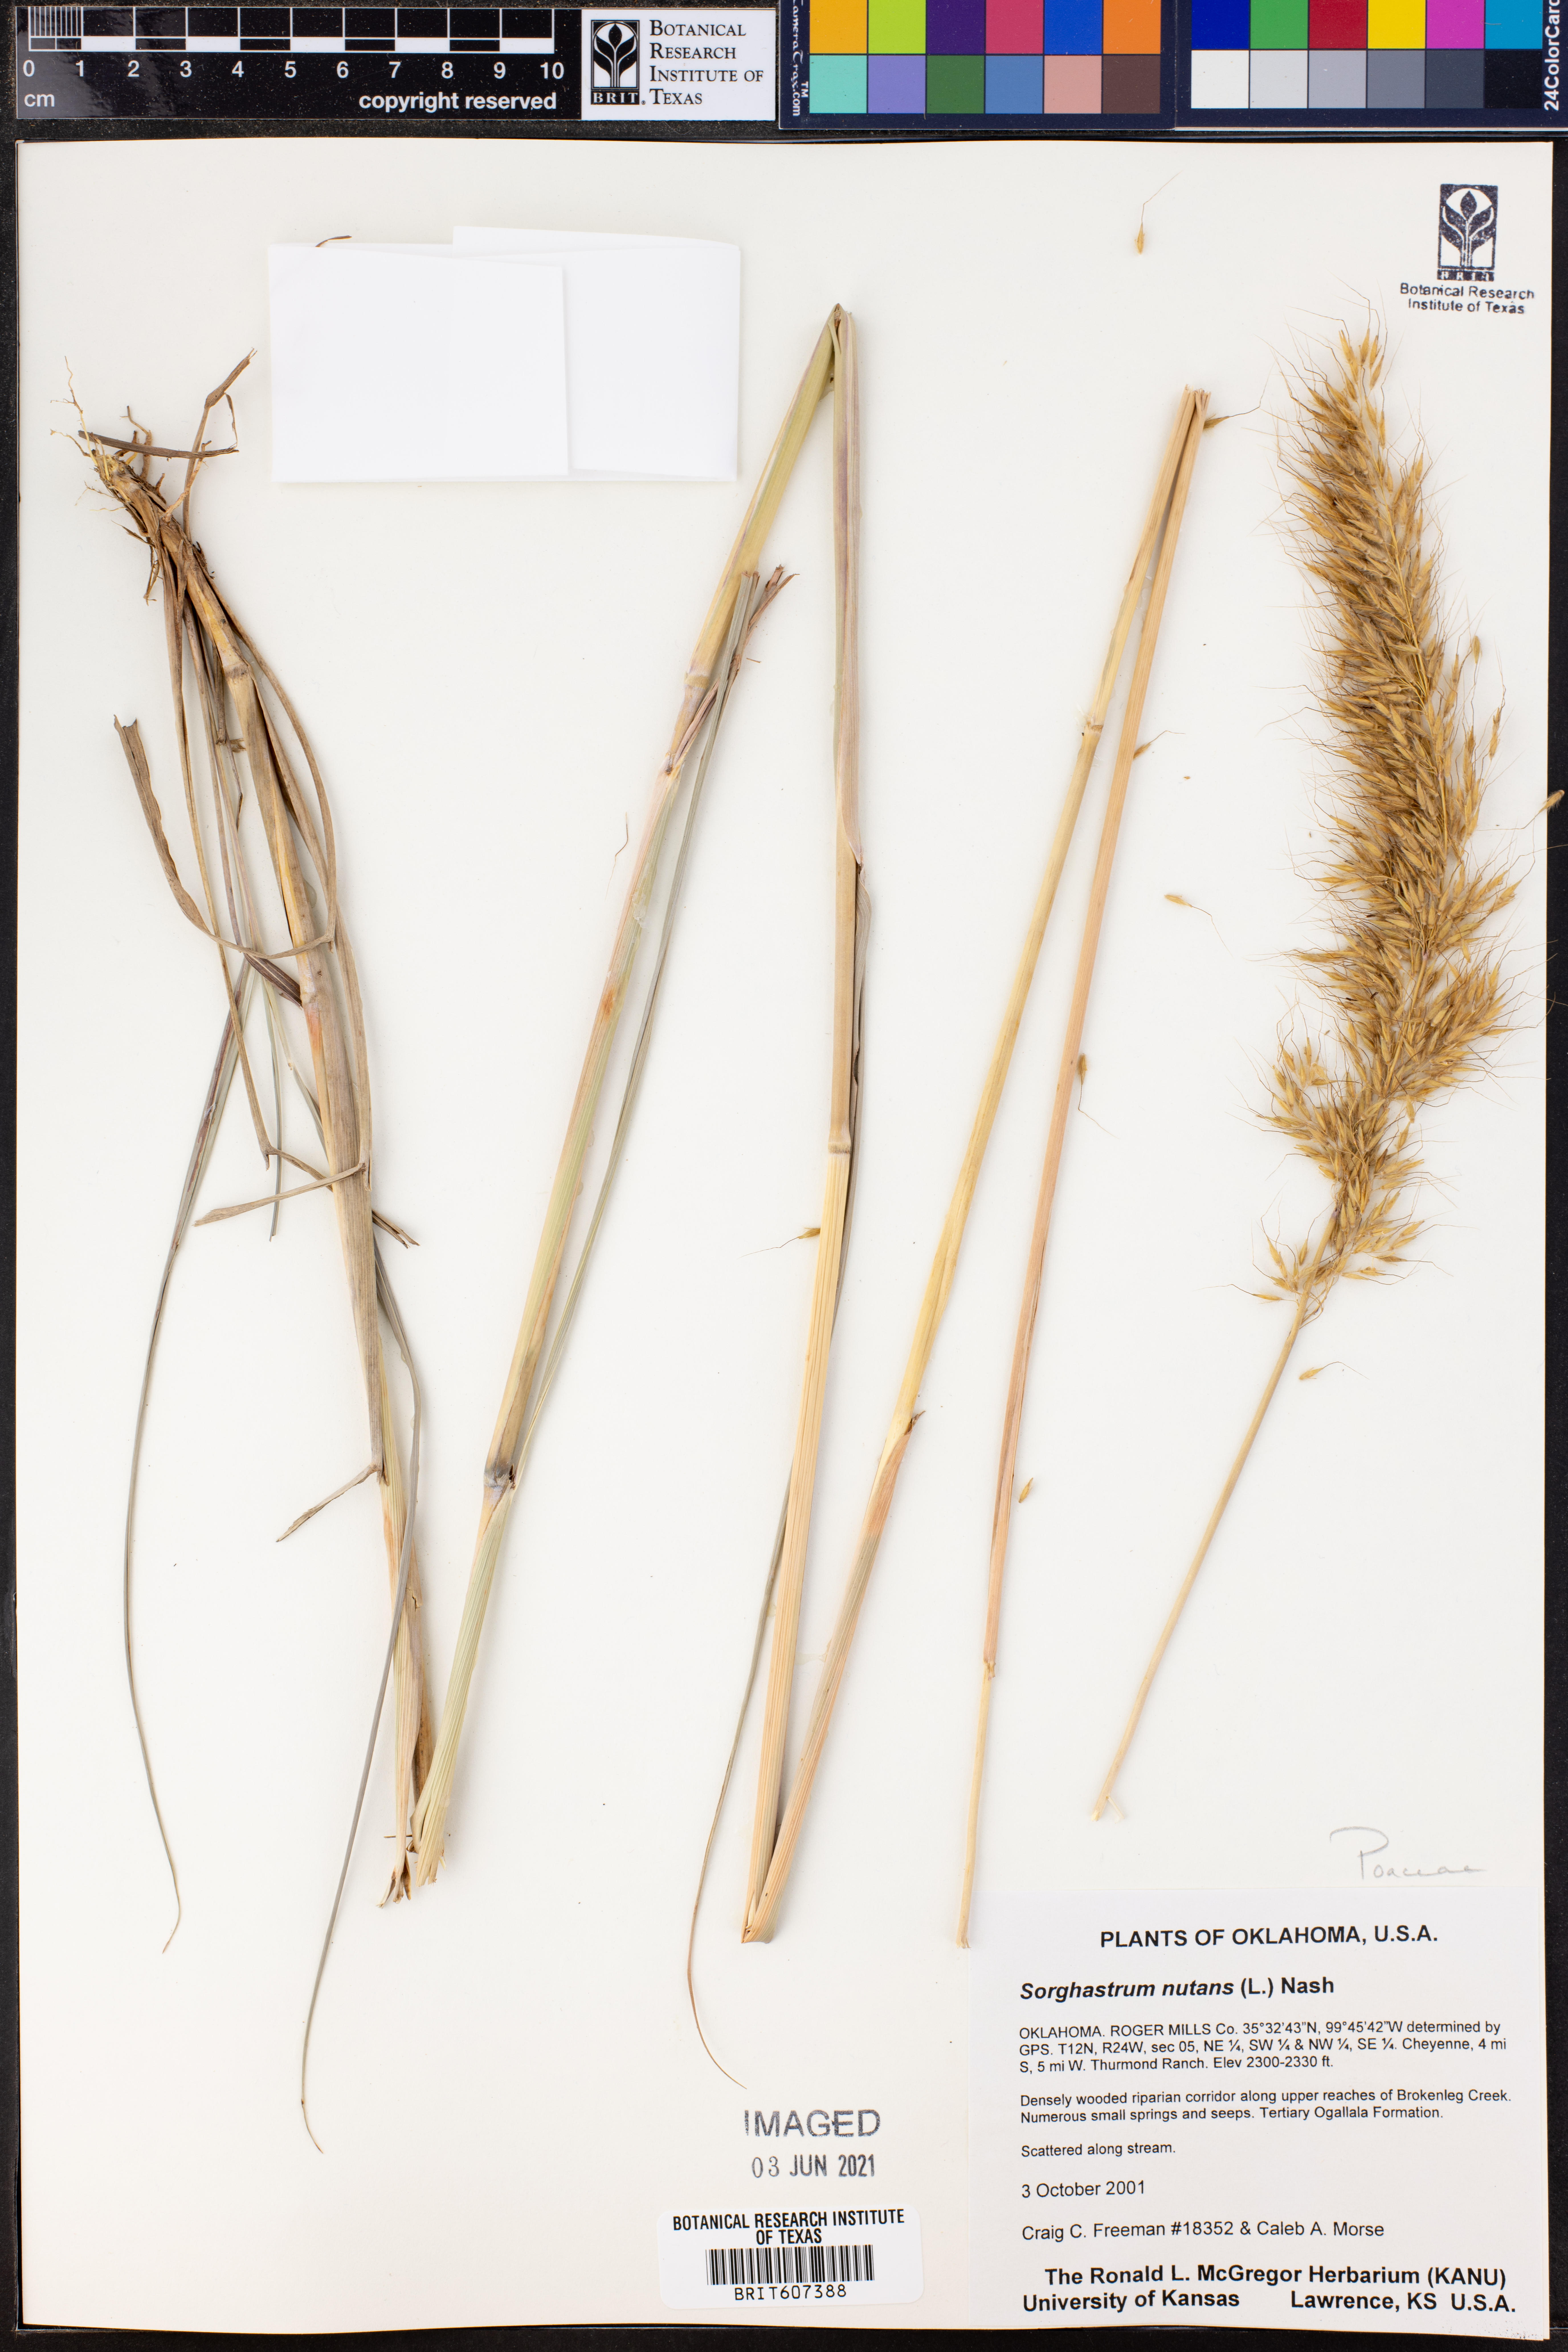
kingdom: Plantae
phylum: Tracheophyta
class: Liliopsida
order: Poales
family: Poaceae
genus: Sorghastrum
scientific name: Sorghastrum nutans
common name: Indian grass
